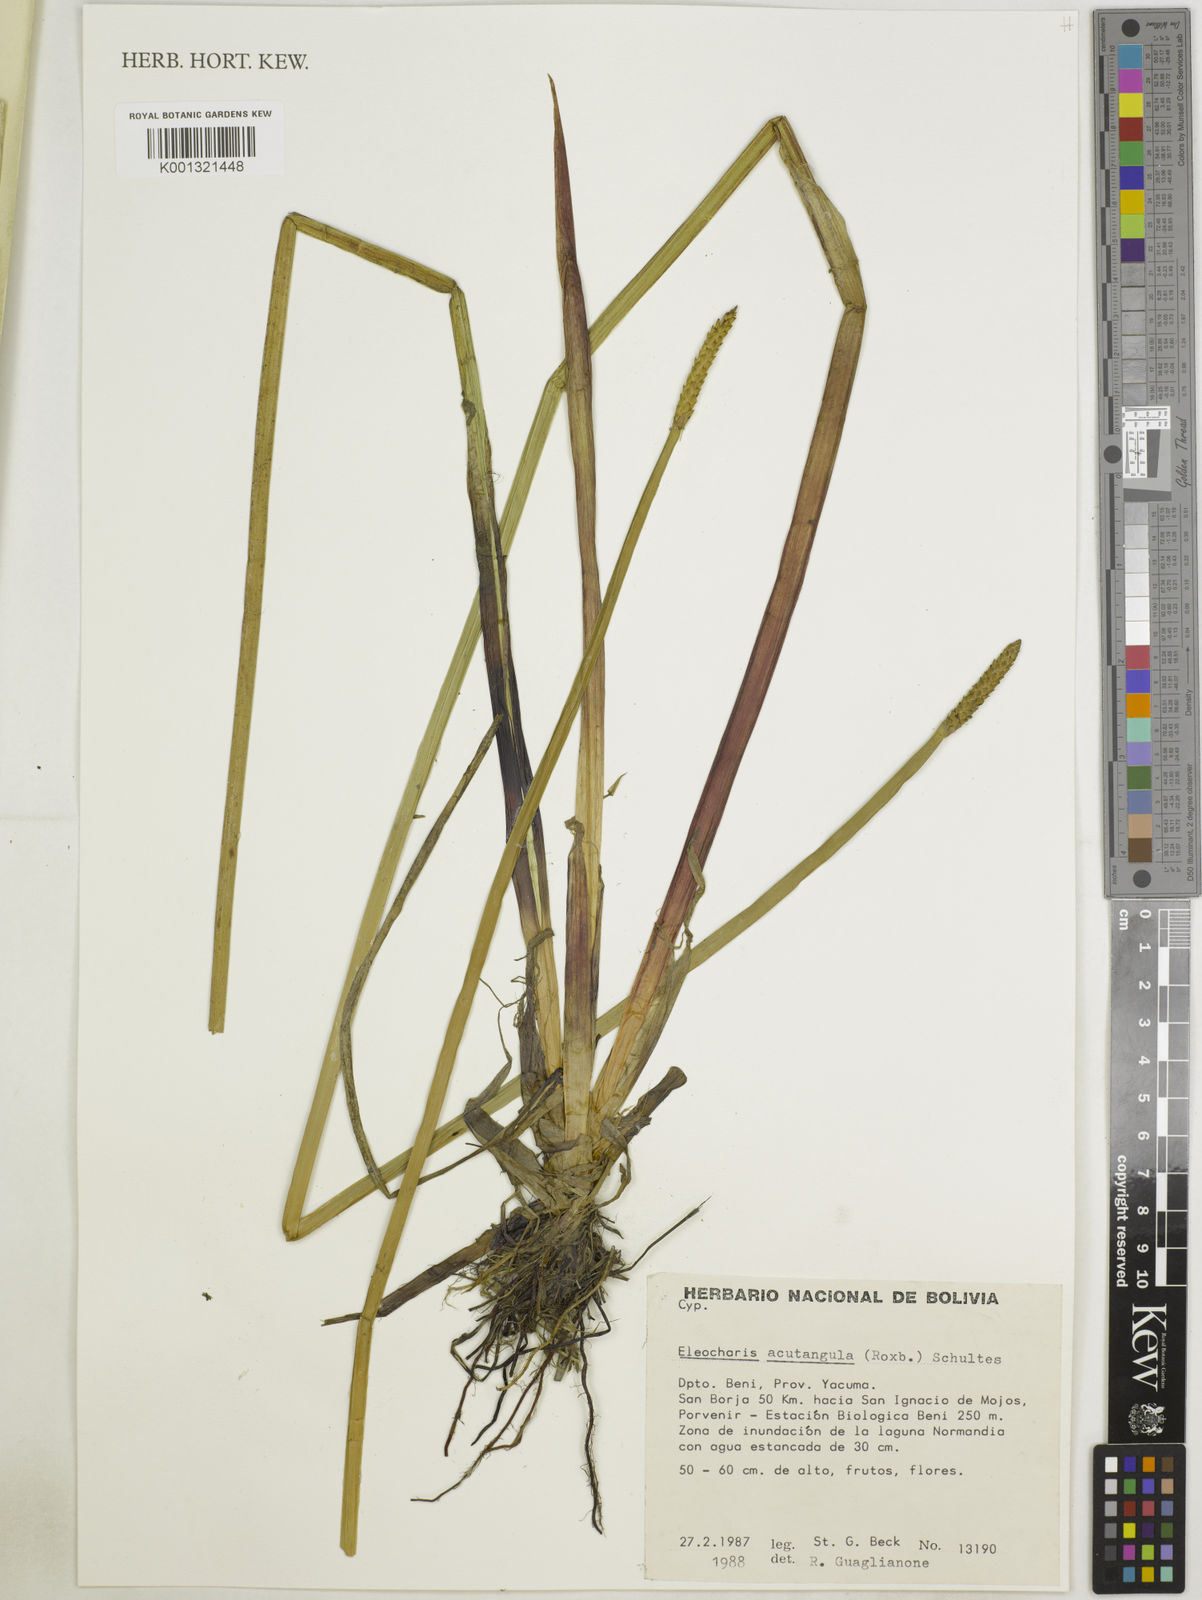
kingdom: Plantae
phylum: Tracheophyta
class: Liliopsida
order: Poales
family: Cyperaceae
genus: Eleocharis
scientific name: Eleocharis acutangula
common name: Acute spikerush
